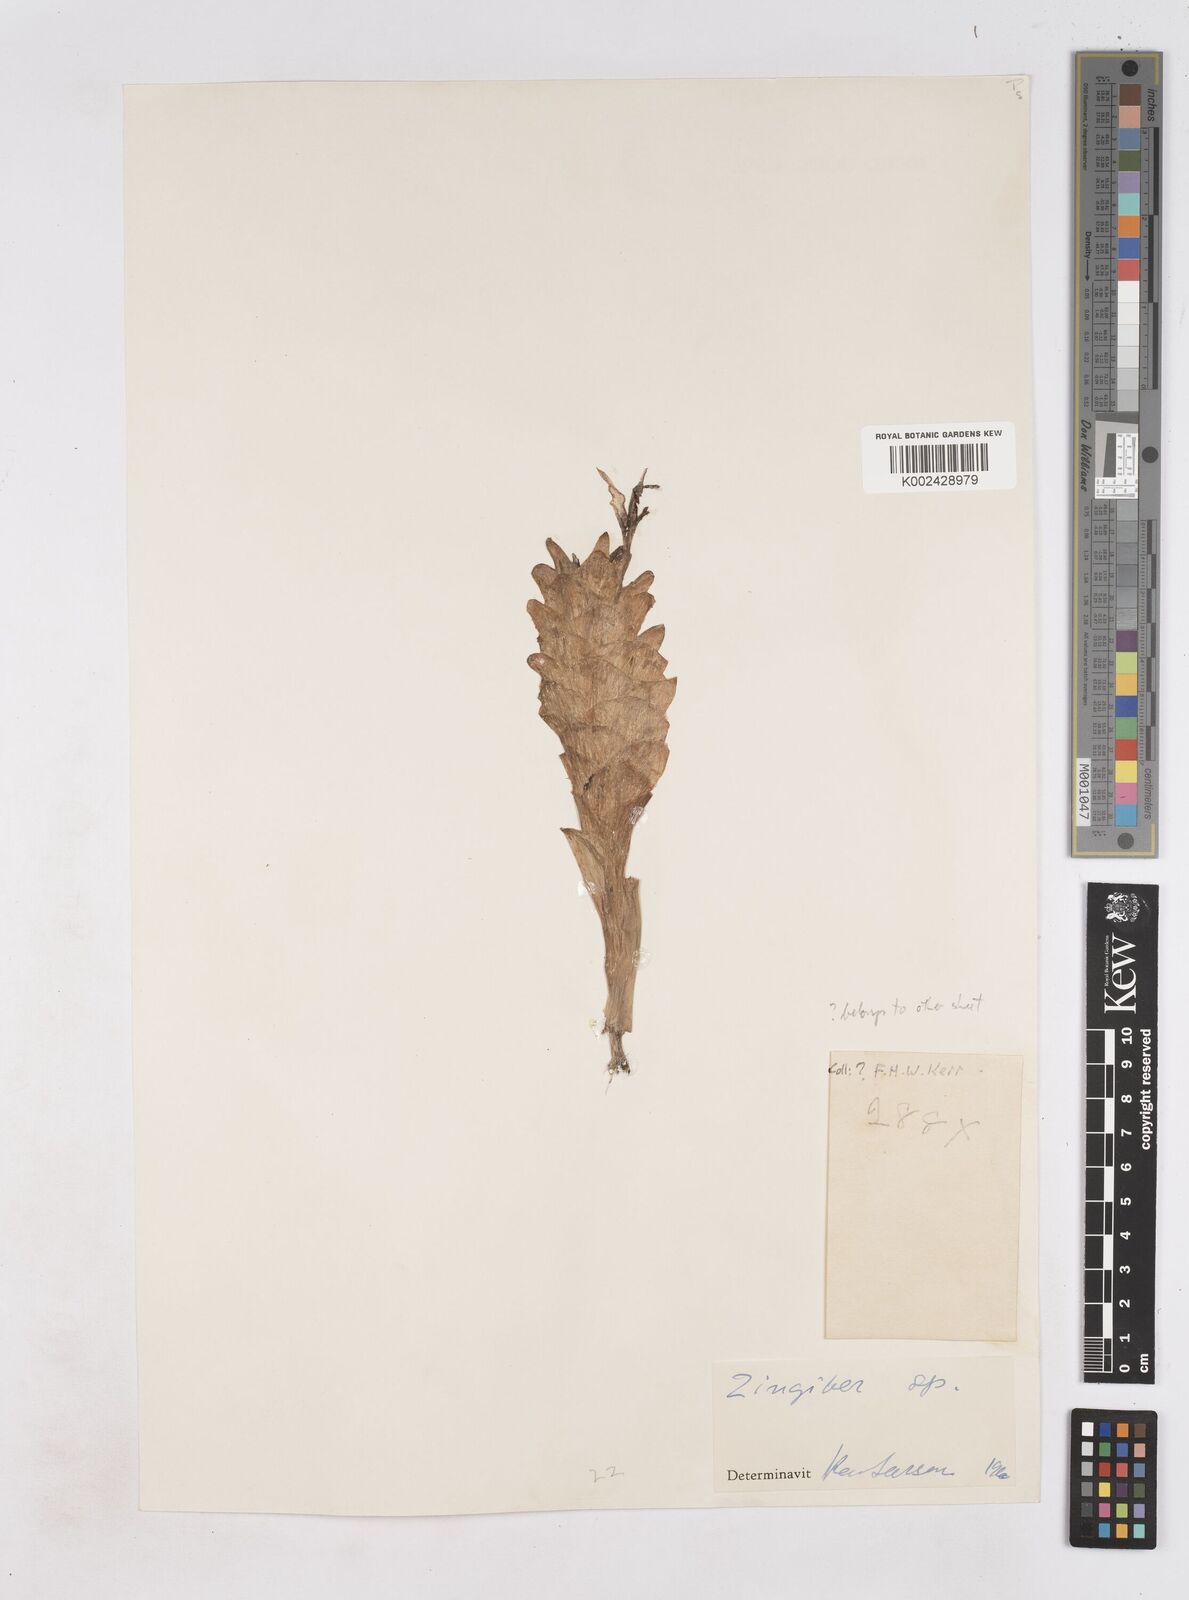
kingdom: Plantae
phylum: Tracheophyta
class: Liliopsida
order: Zingiberales
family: Zingiberaceae
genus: Zingiber
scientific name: Zingiber
